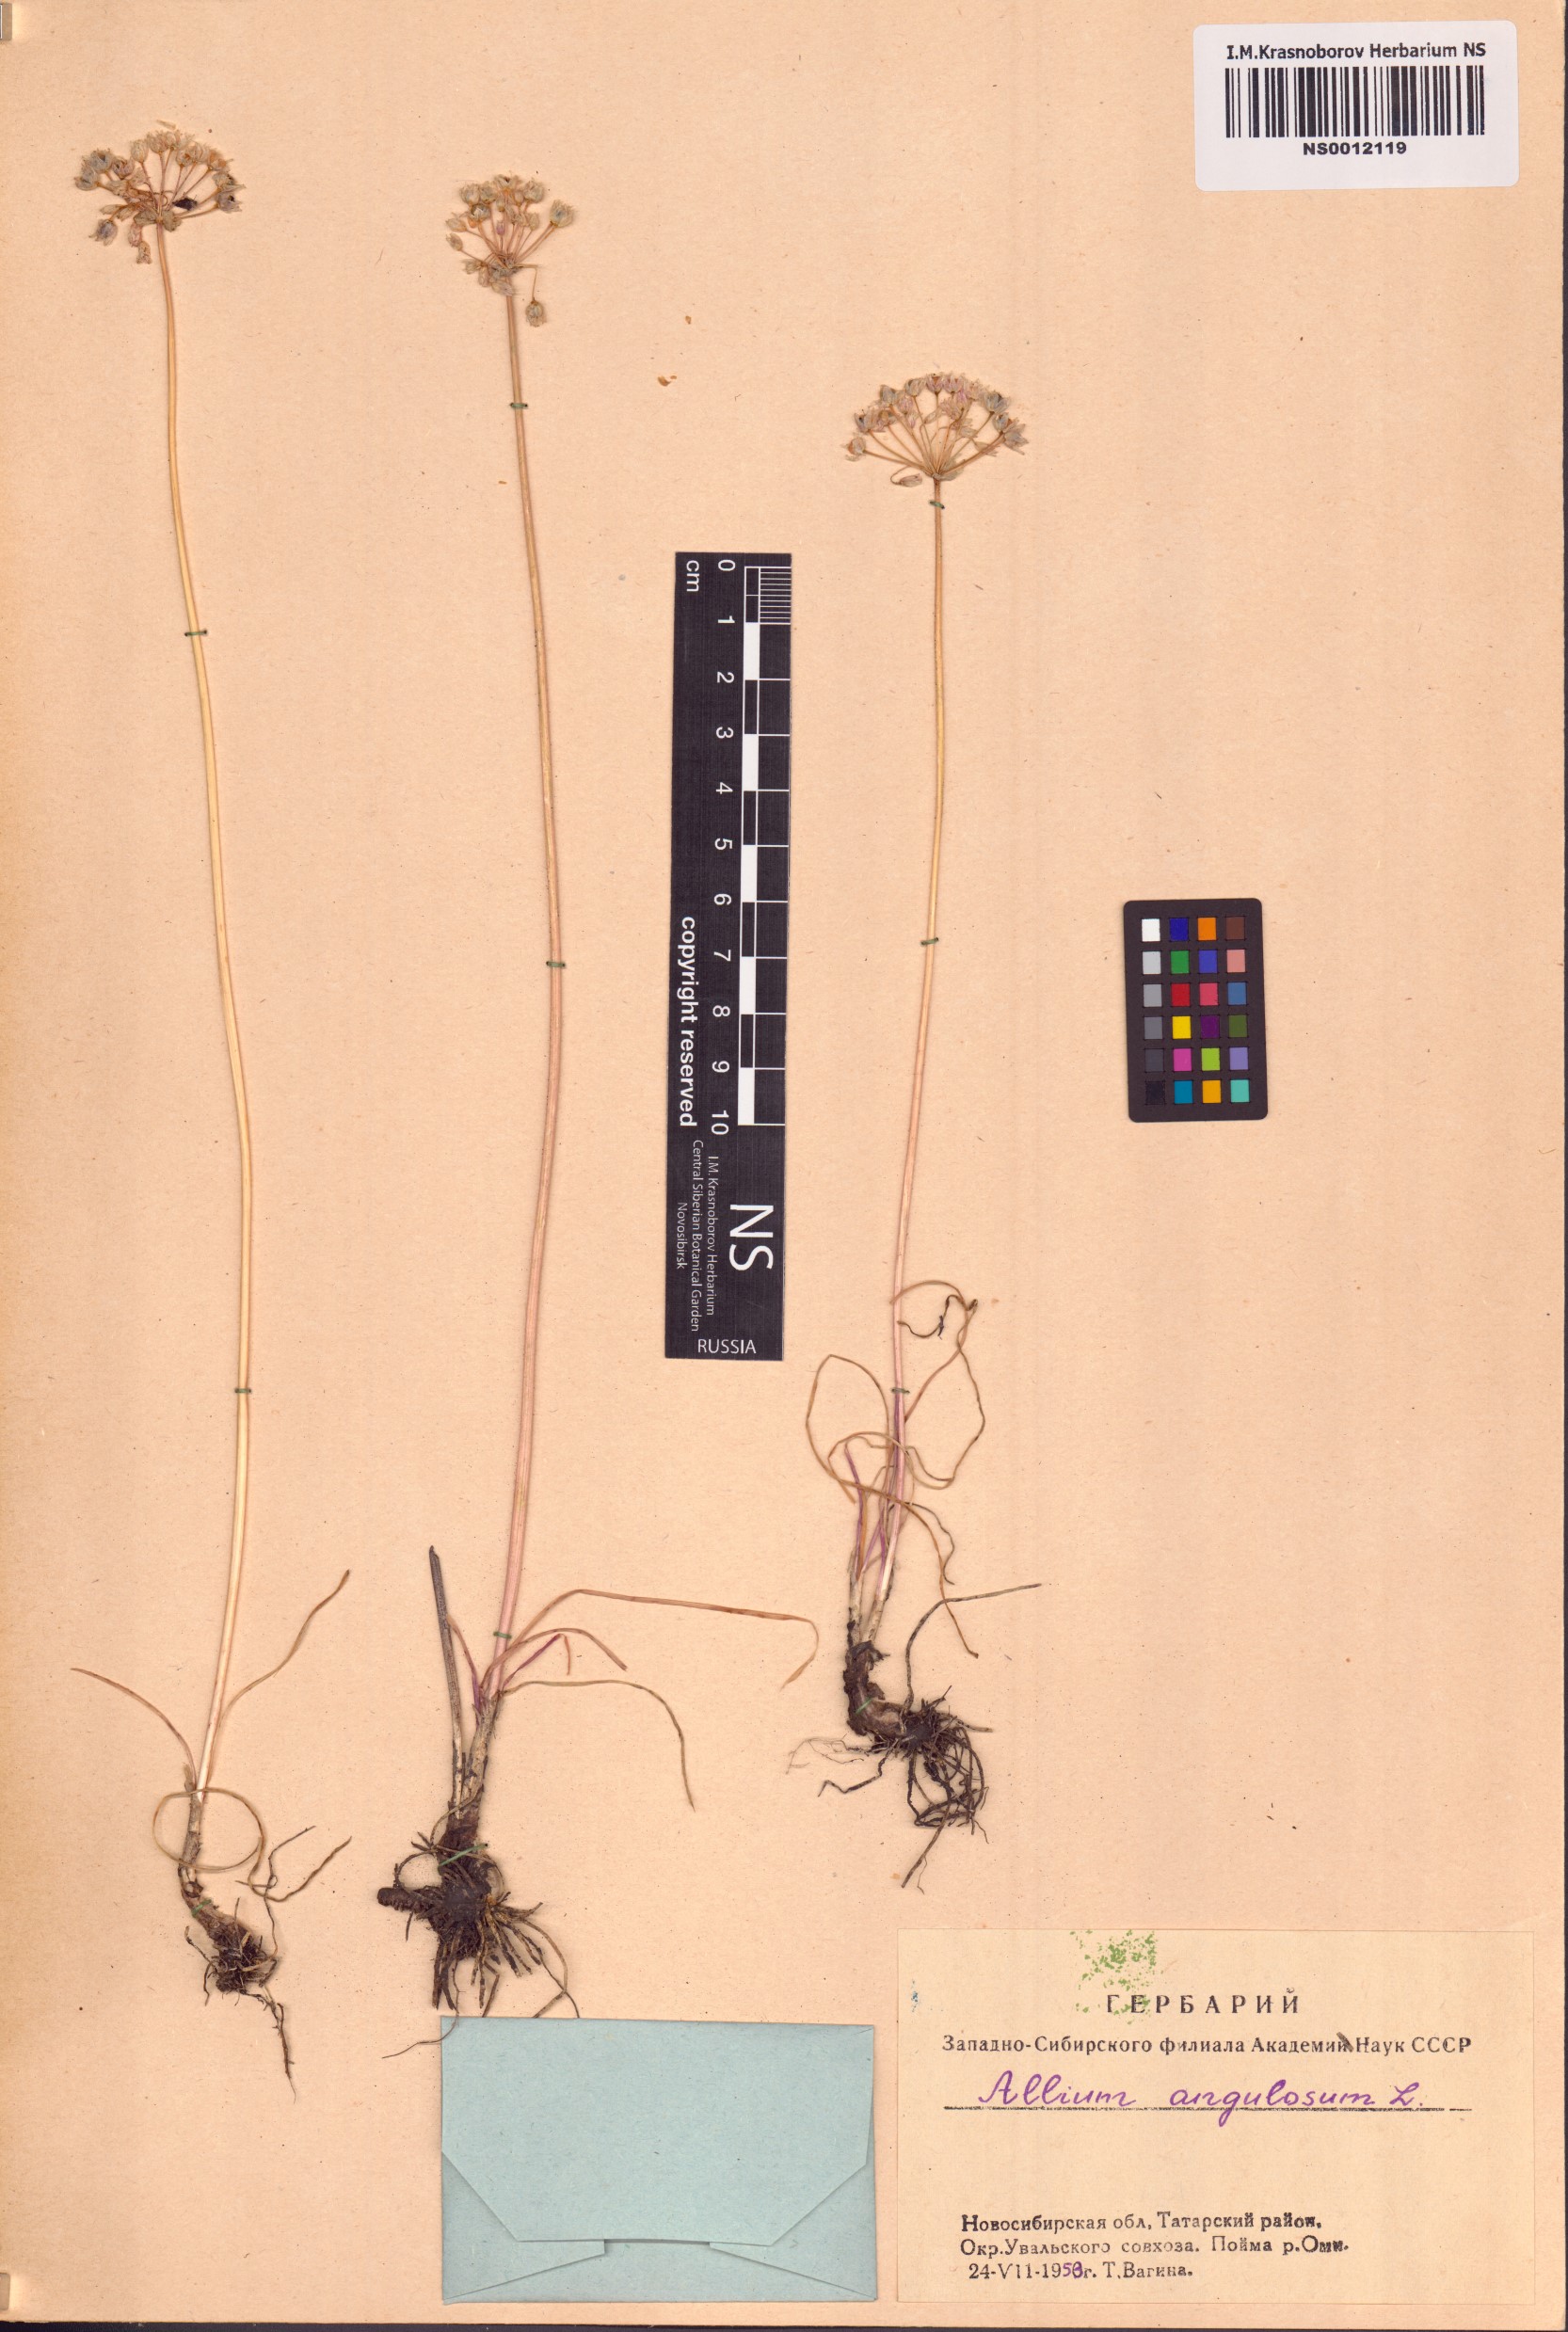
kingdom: Plantae
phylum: Tracheophyta
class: Liliopsida
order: Asparagales
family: Amaryllidaceae
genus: Allium
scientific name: Allium angulosum
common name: Mouse garlic
